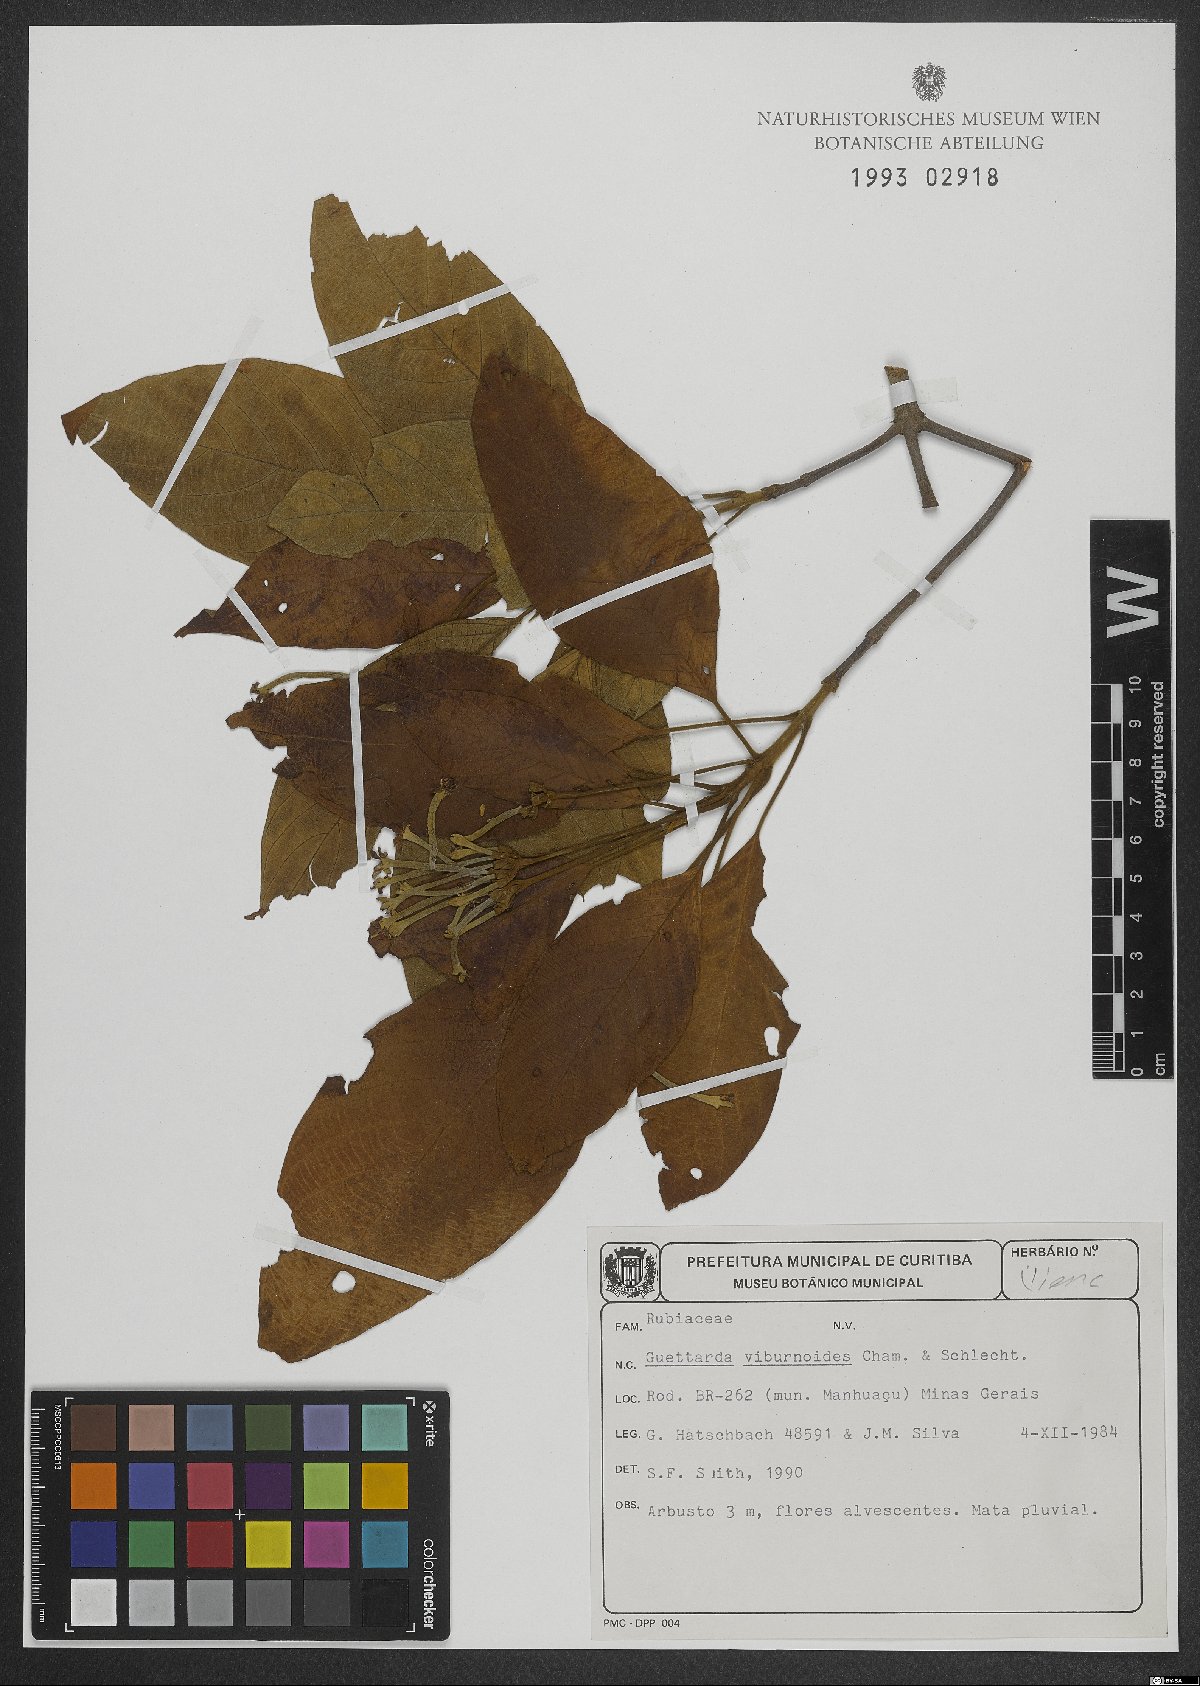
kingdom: Plantae
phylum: Tracheophyta
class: Magnoliopsida
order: Gentianales
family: Rubiaceae
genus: Guettarda
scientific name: Guettarda viburnoides
